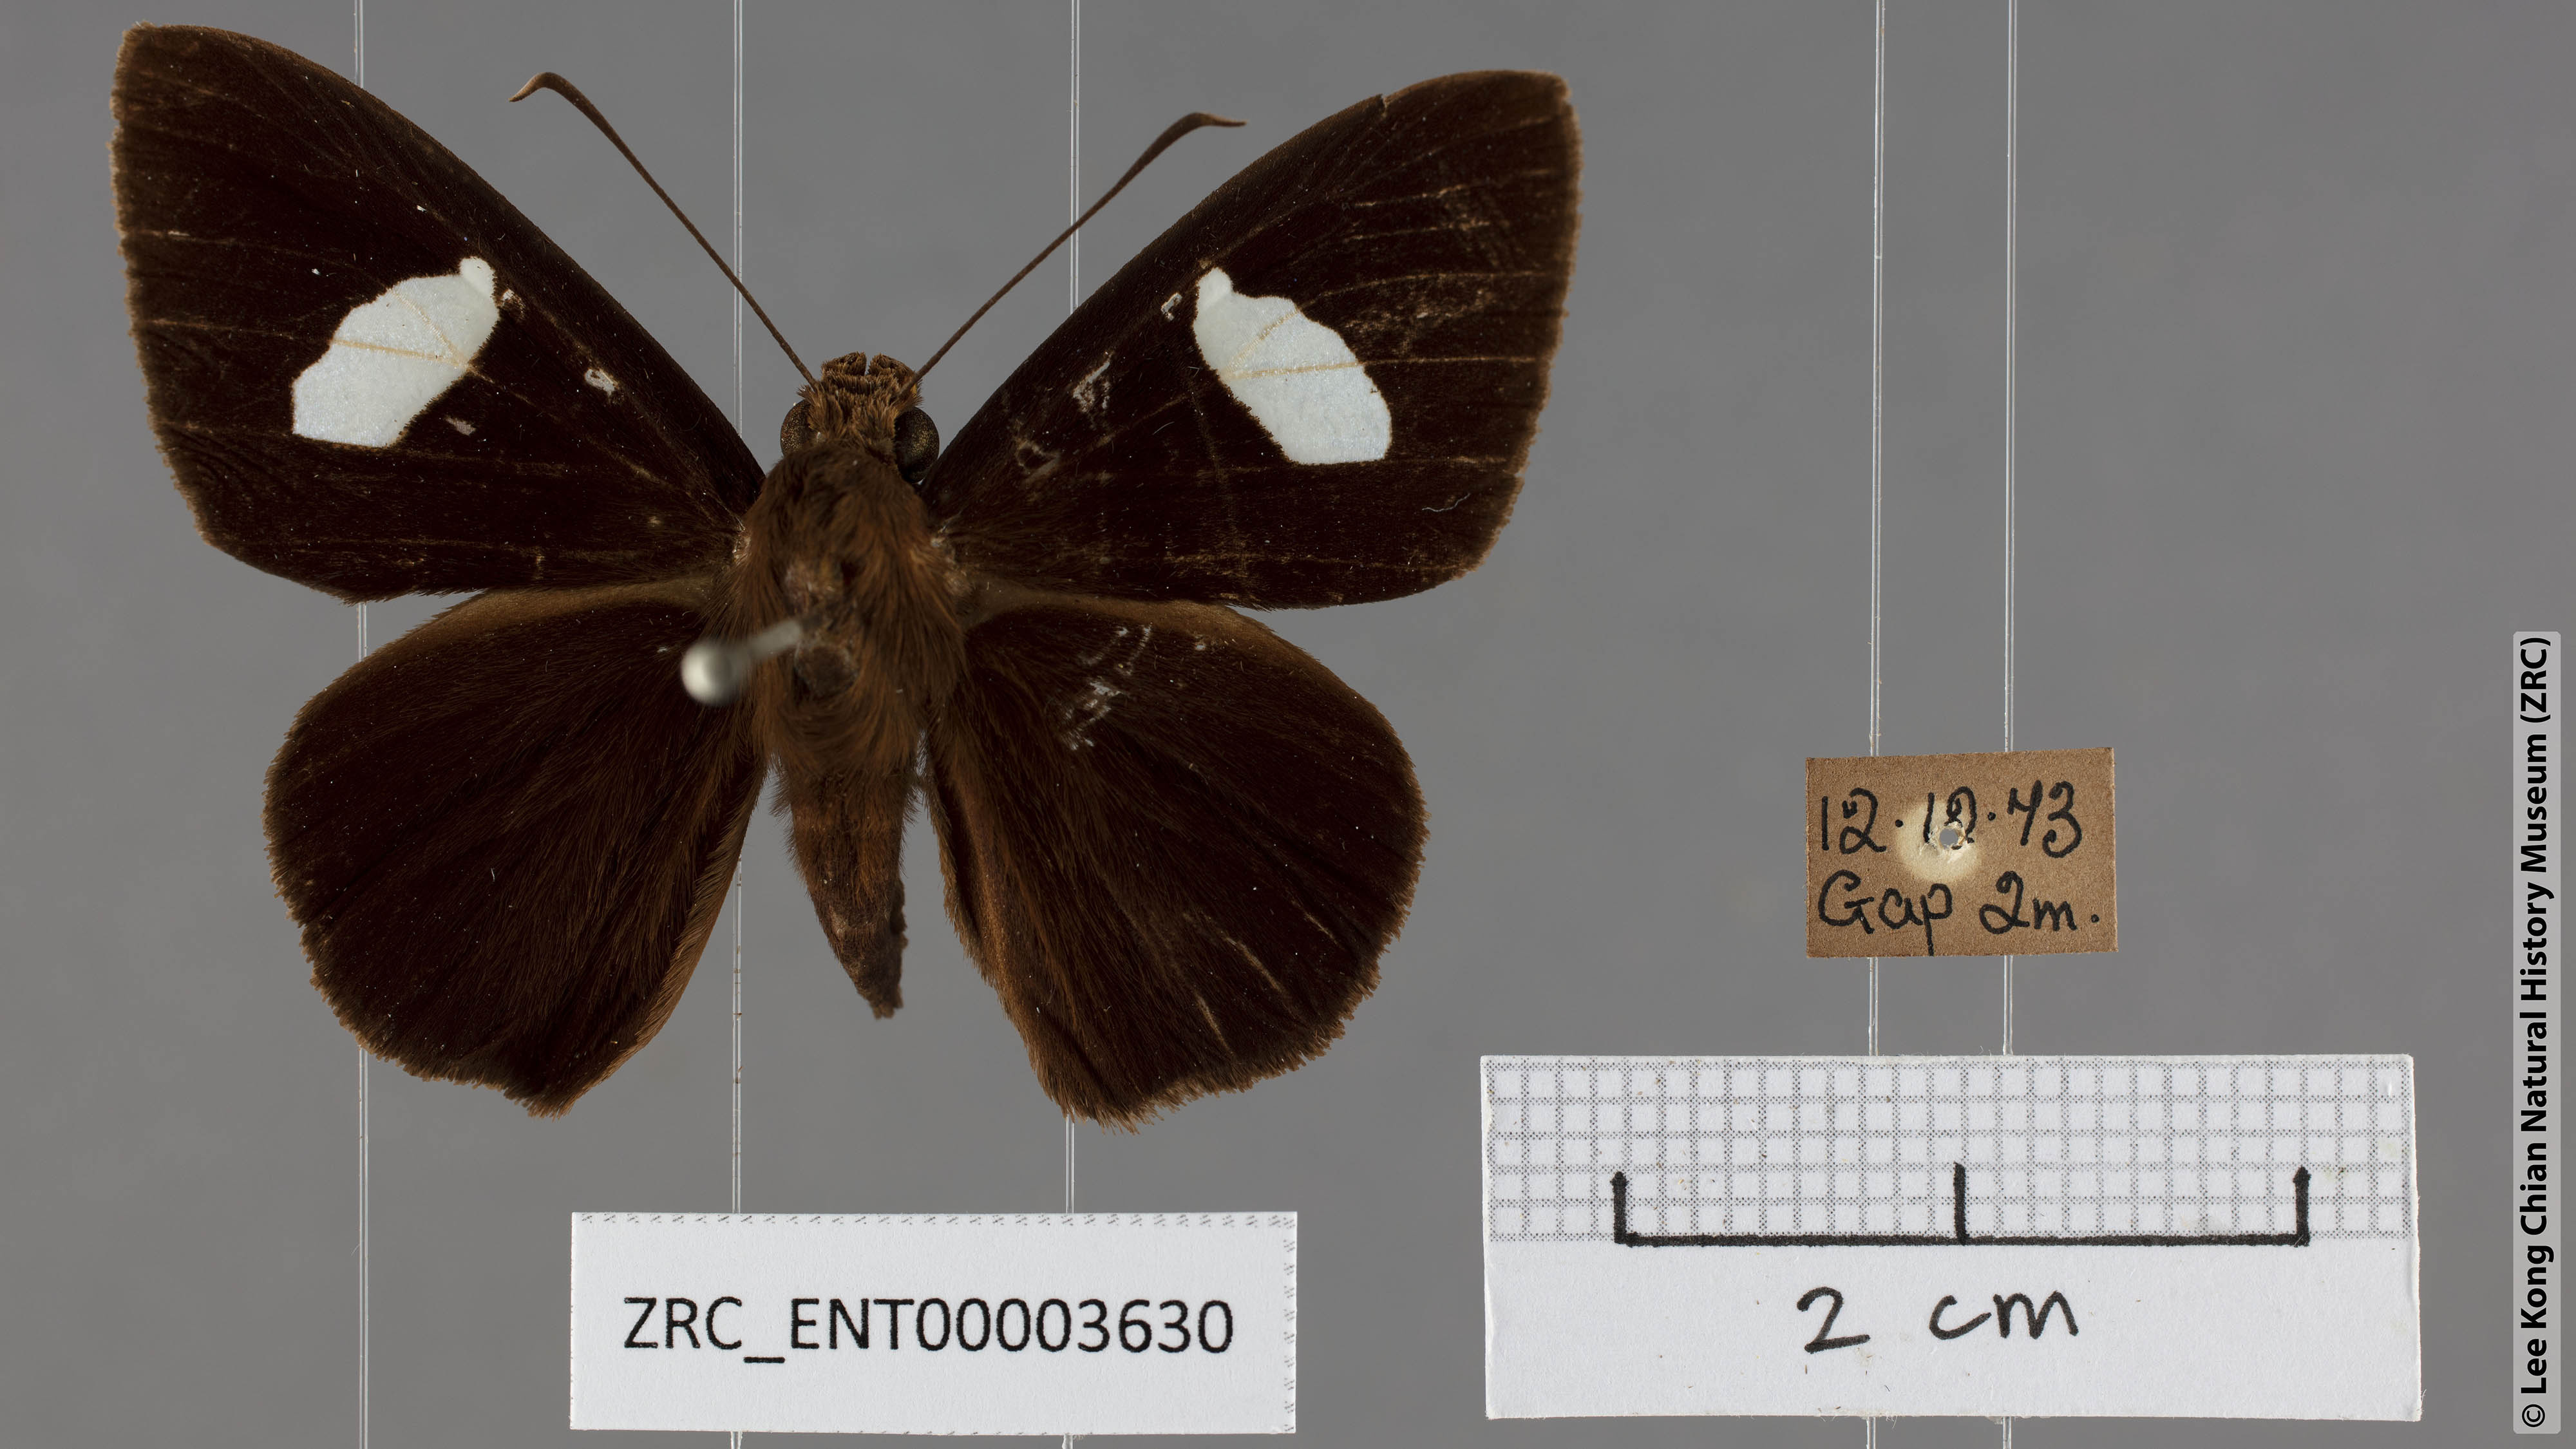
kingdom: Animalia
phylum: Arthropoda
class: Insecta
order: Lepidoptera
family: Hesperiidae
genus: Celaenorrhinus
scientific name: Celaenorrhinus ficulnea
